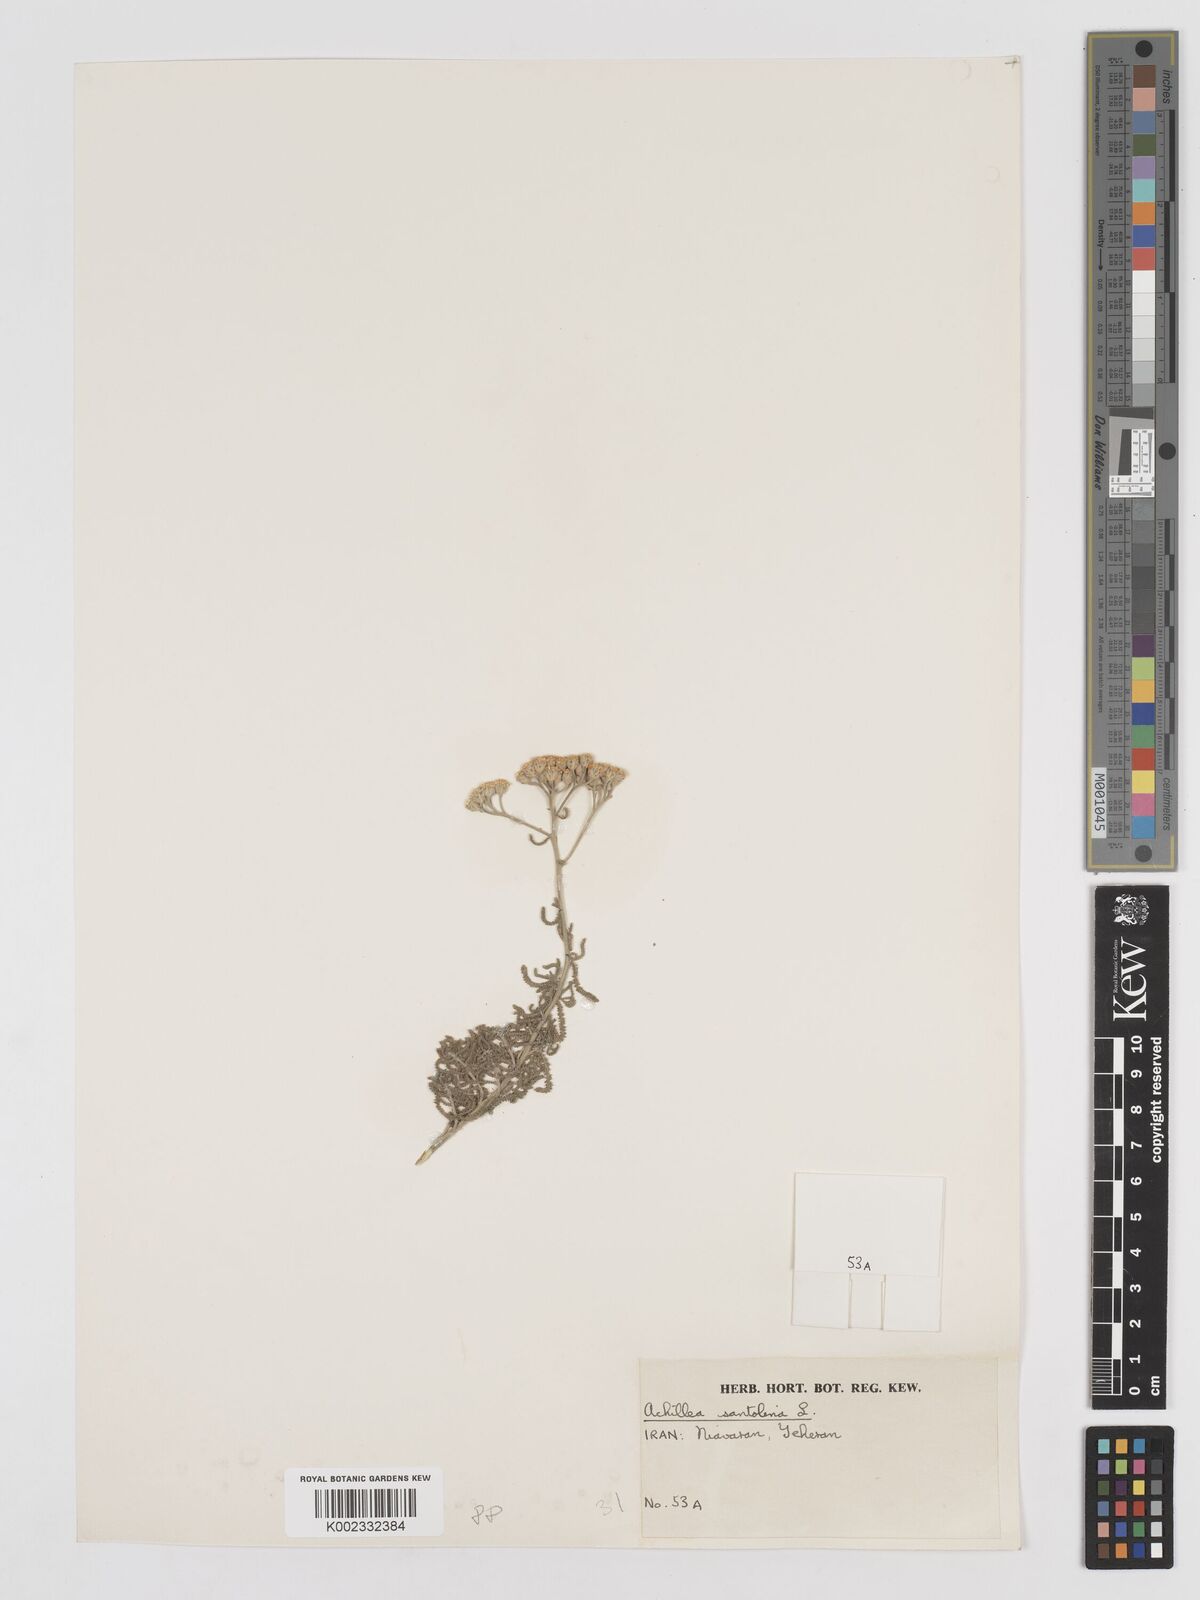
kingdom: Plantae
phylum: Tracheophyta
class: Magnoliopsida
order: Asterales
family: Asteraceae
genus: Achillea
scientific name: Achillea cretica
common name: Chamomile-leaved lavender-cotton
